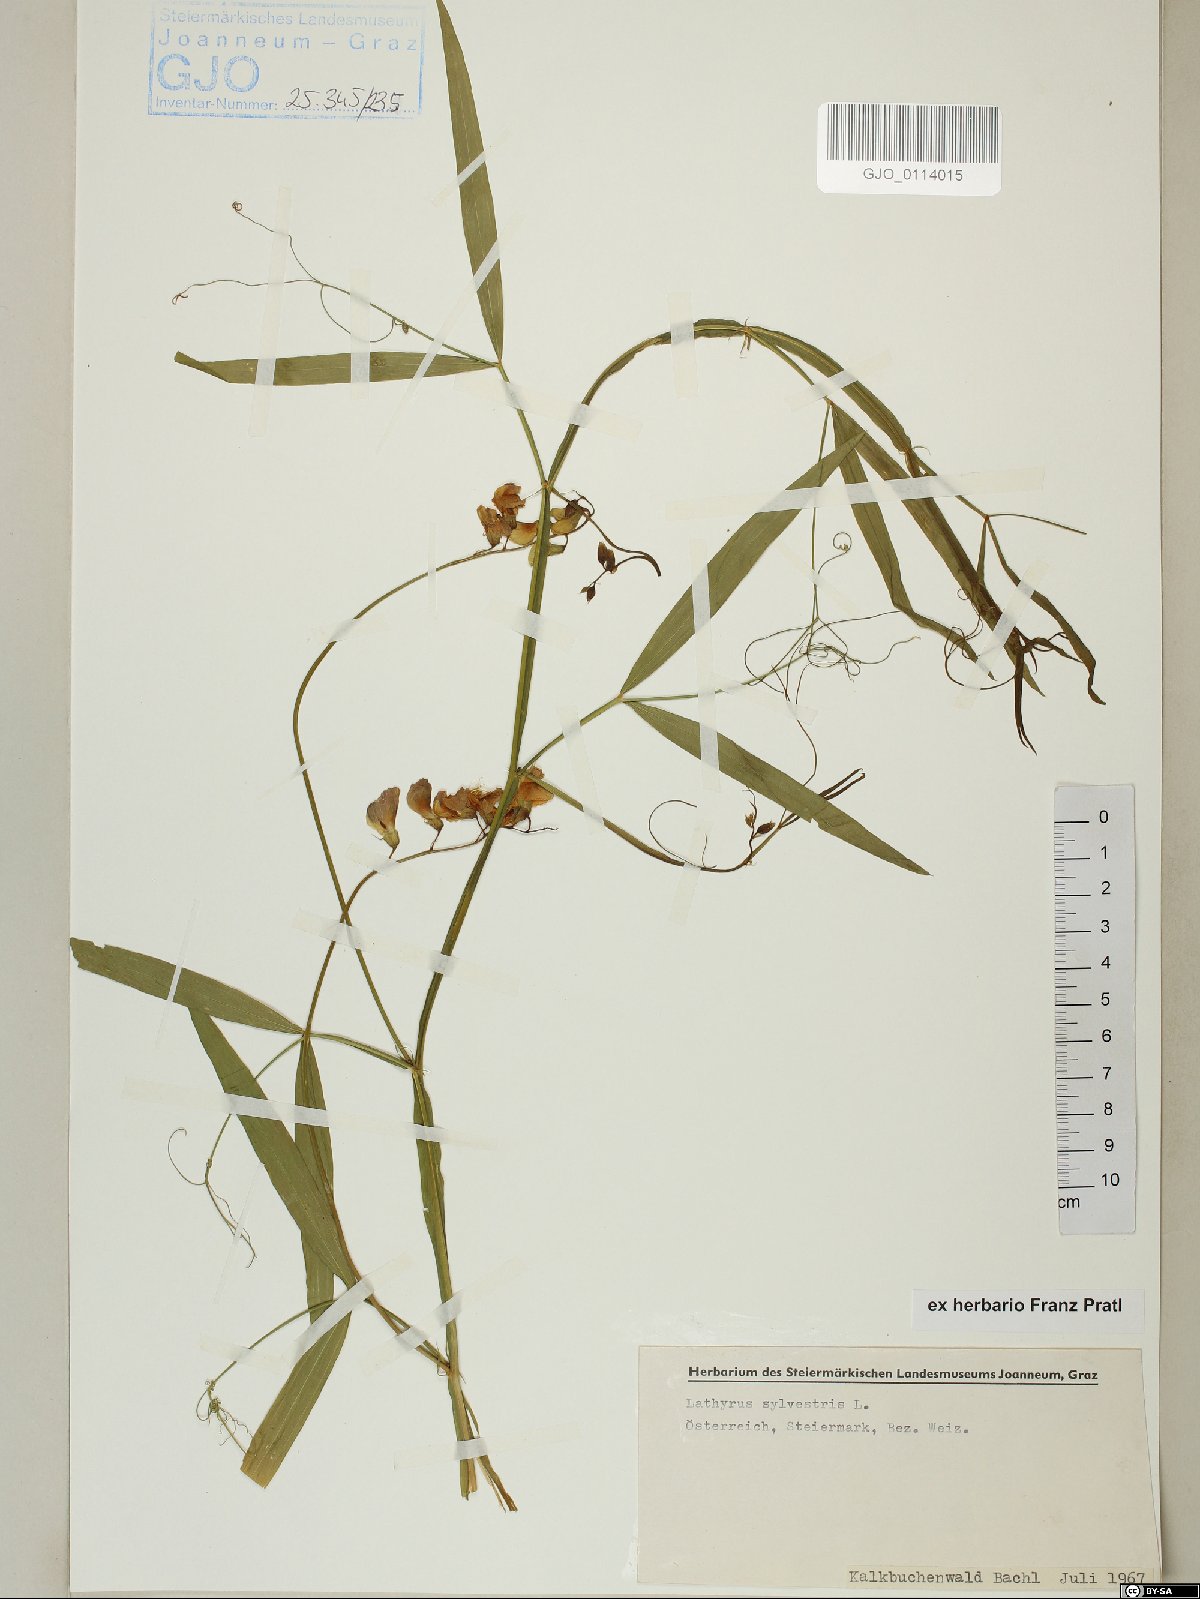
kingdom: Plantae
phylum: Tracheophyta
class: Magnoliopsida
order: Fabales
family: Fabaceae
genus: Lathyrus
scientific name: Lathyrus sylvestris
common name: Flat pea
